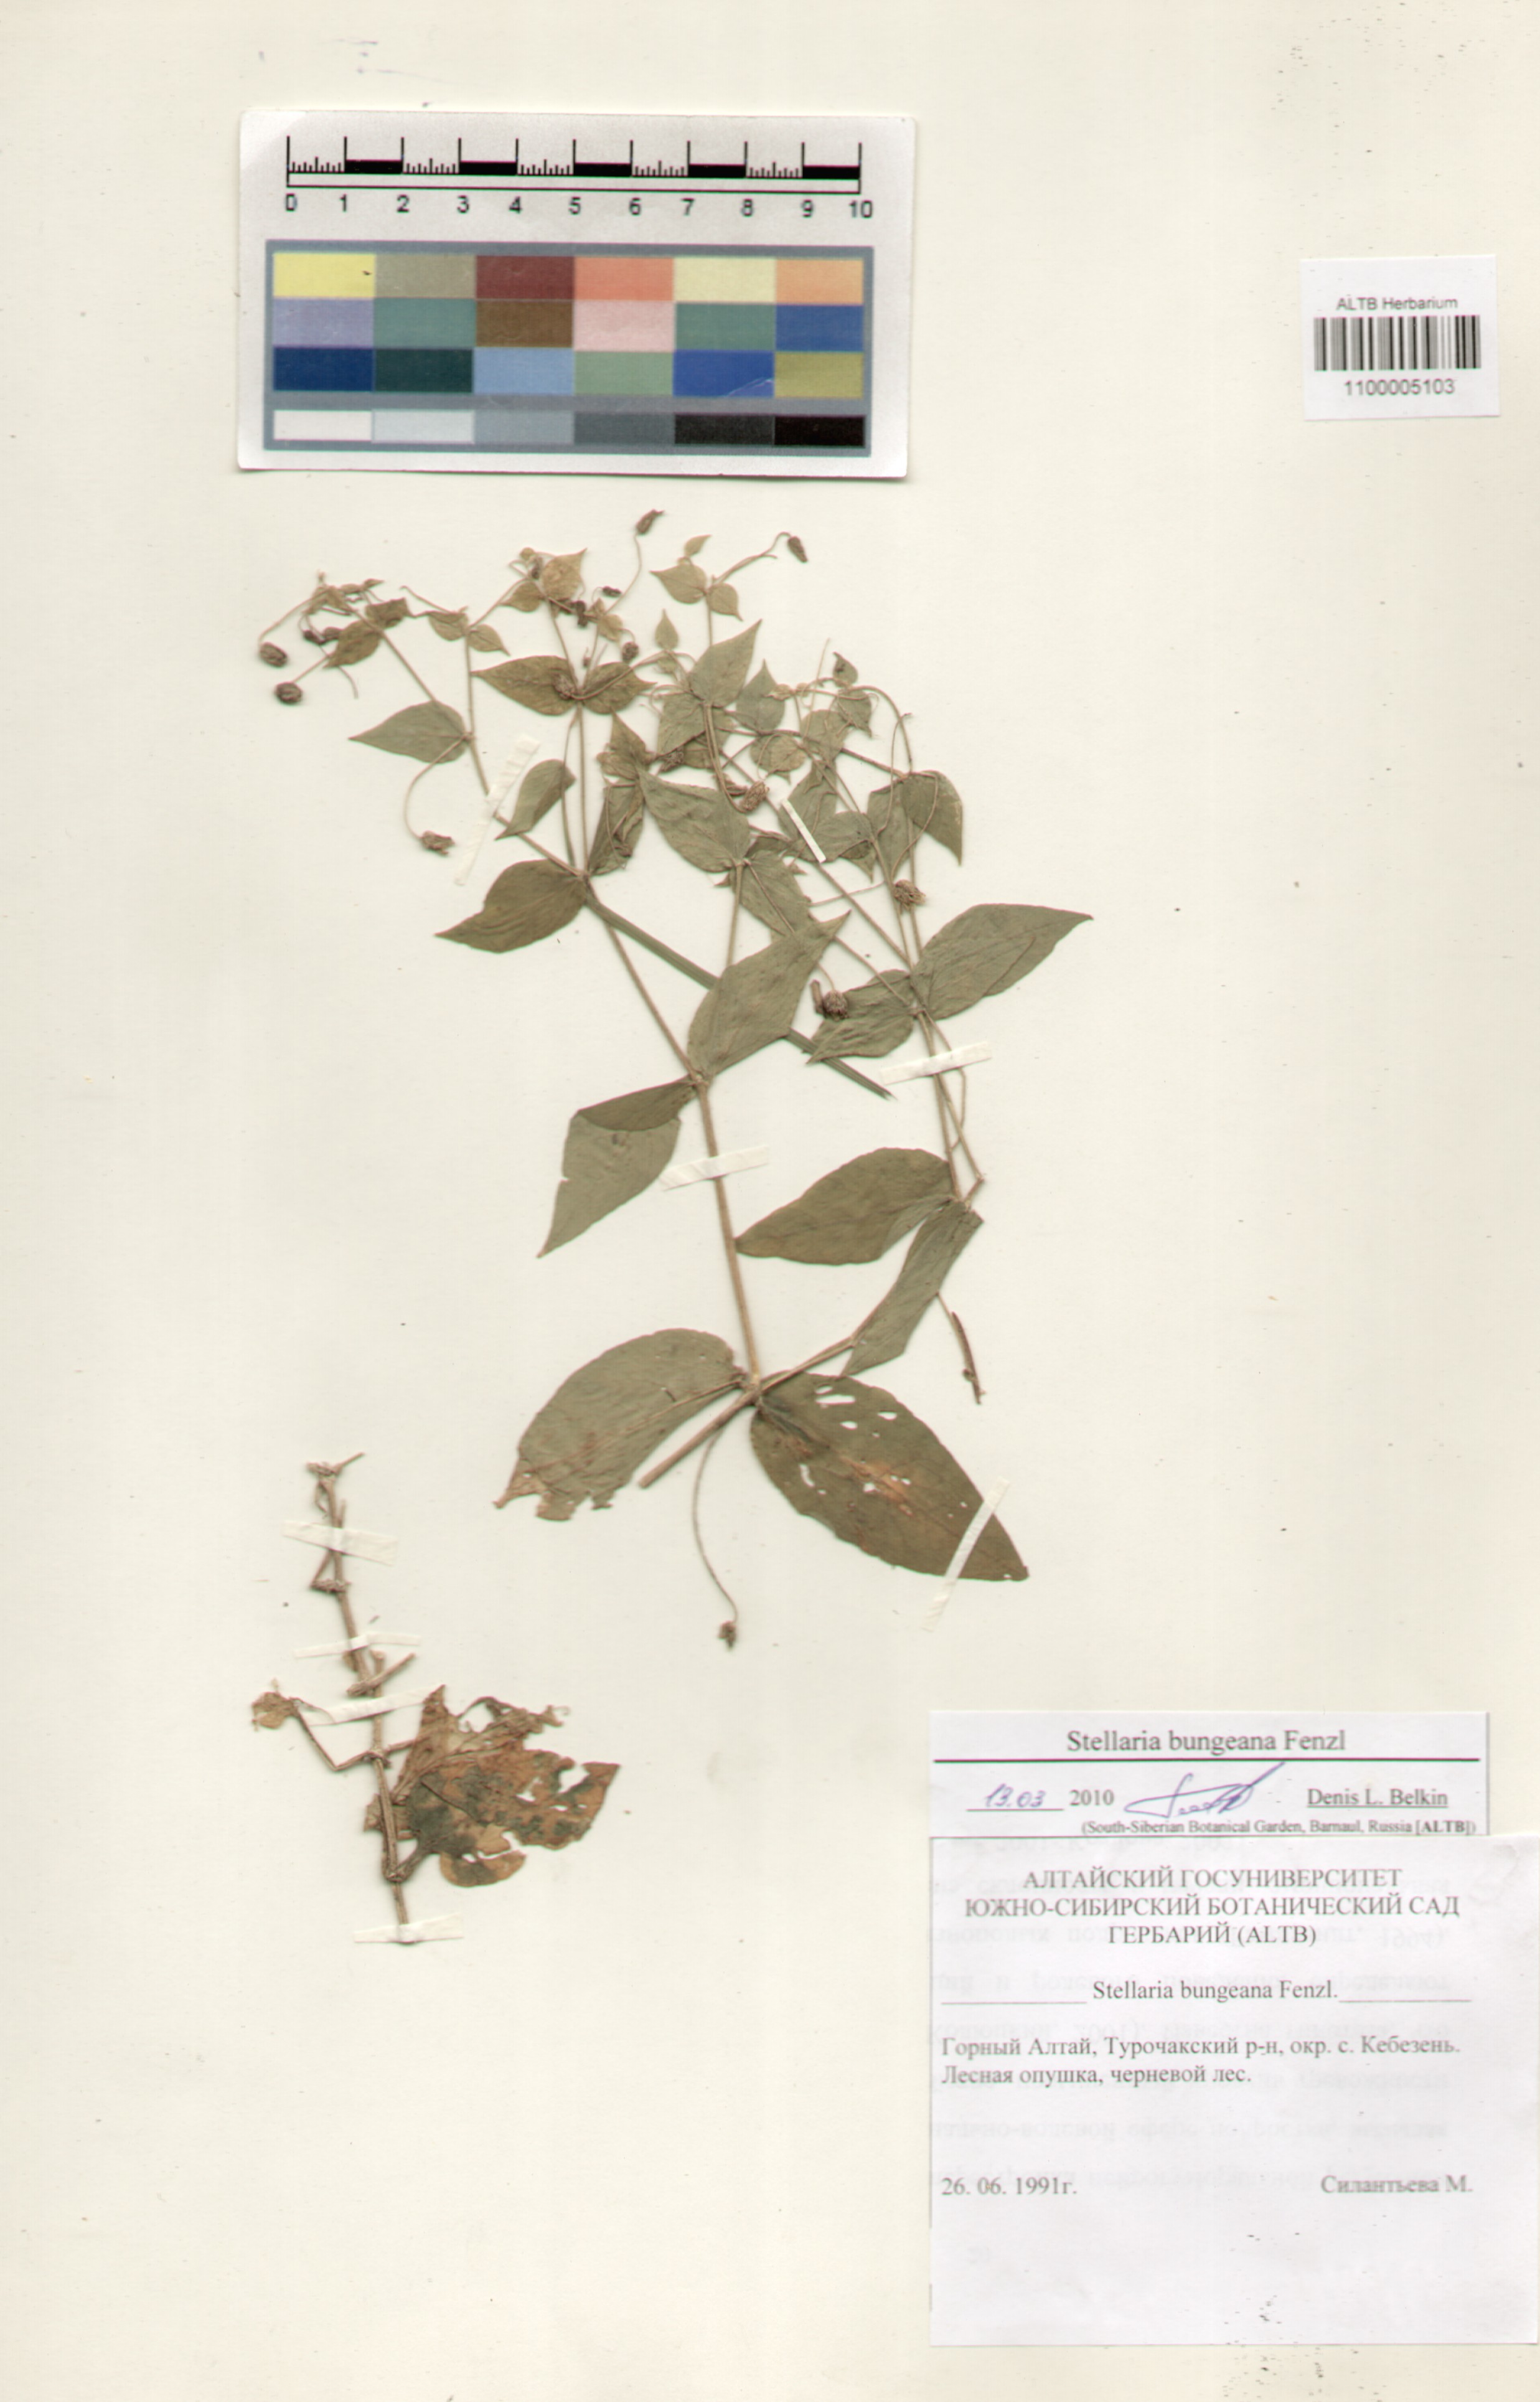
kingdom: Plantae
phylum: Tracheophyta
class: Magnoliopsida
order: Caryophyllales
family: Caryophyllaceae
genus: Stellaria
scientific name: Stellaria bungeana
